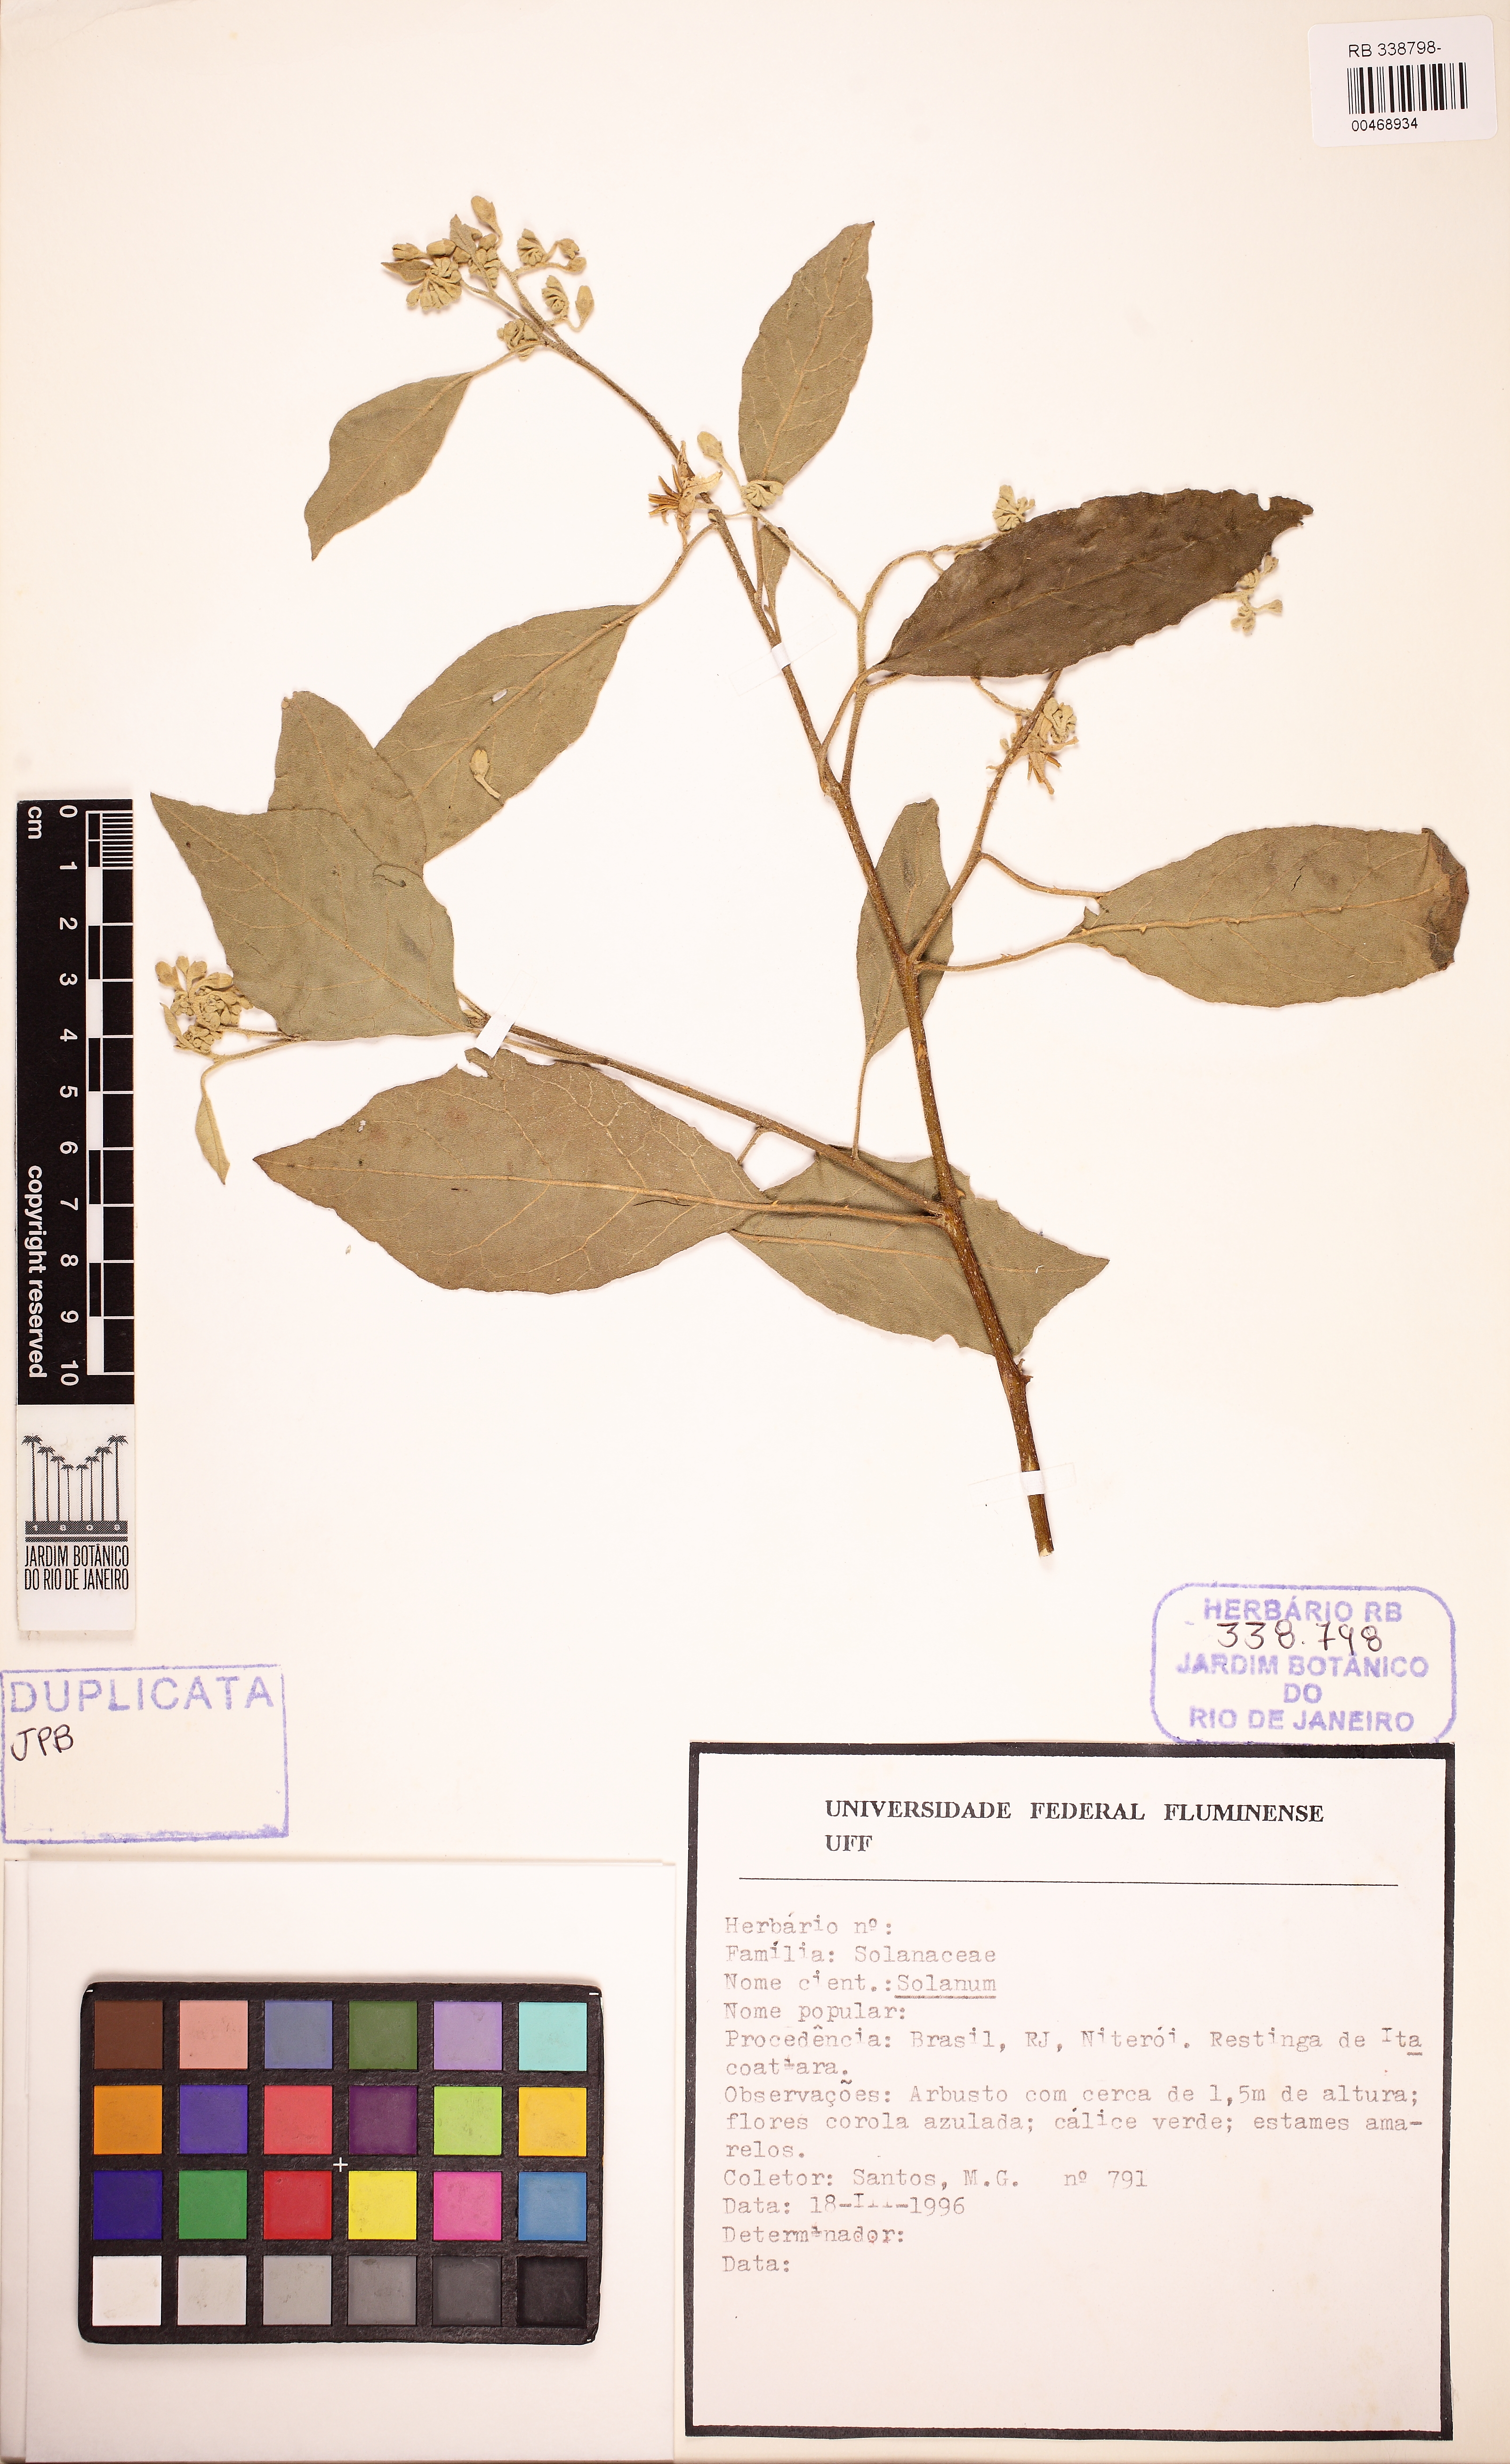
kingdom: Plantae
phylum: Tracheophyta
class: Magnoliopsida
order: Solanales
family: Solanaceae
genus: Solanum
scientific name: Solanum
